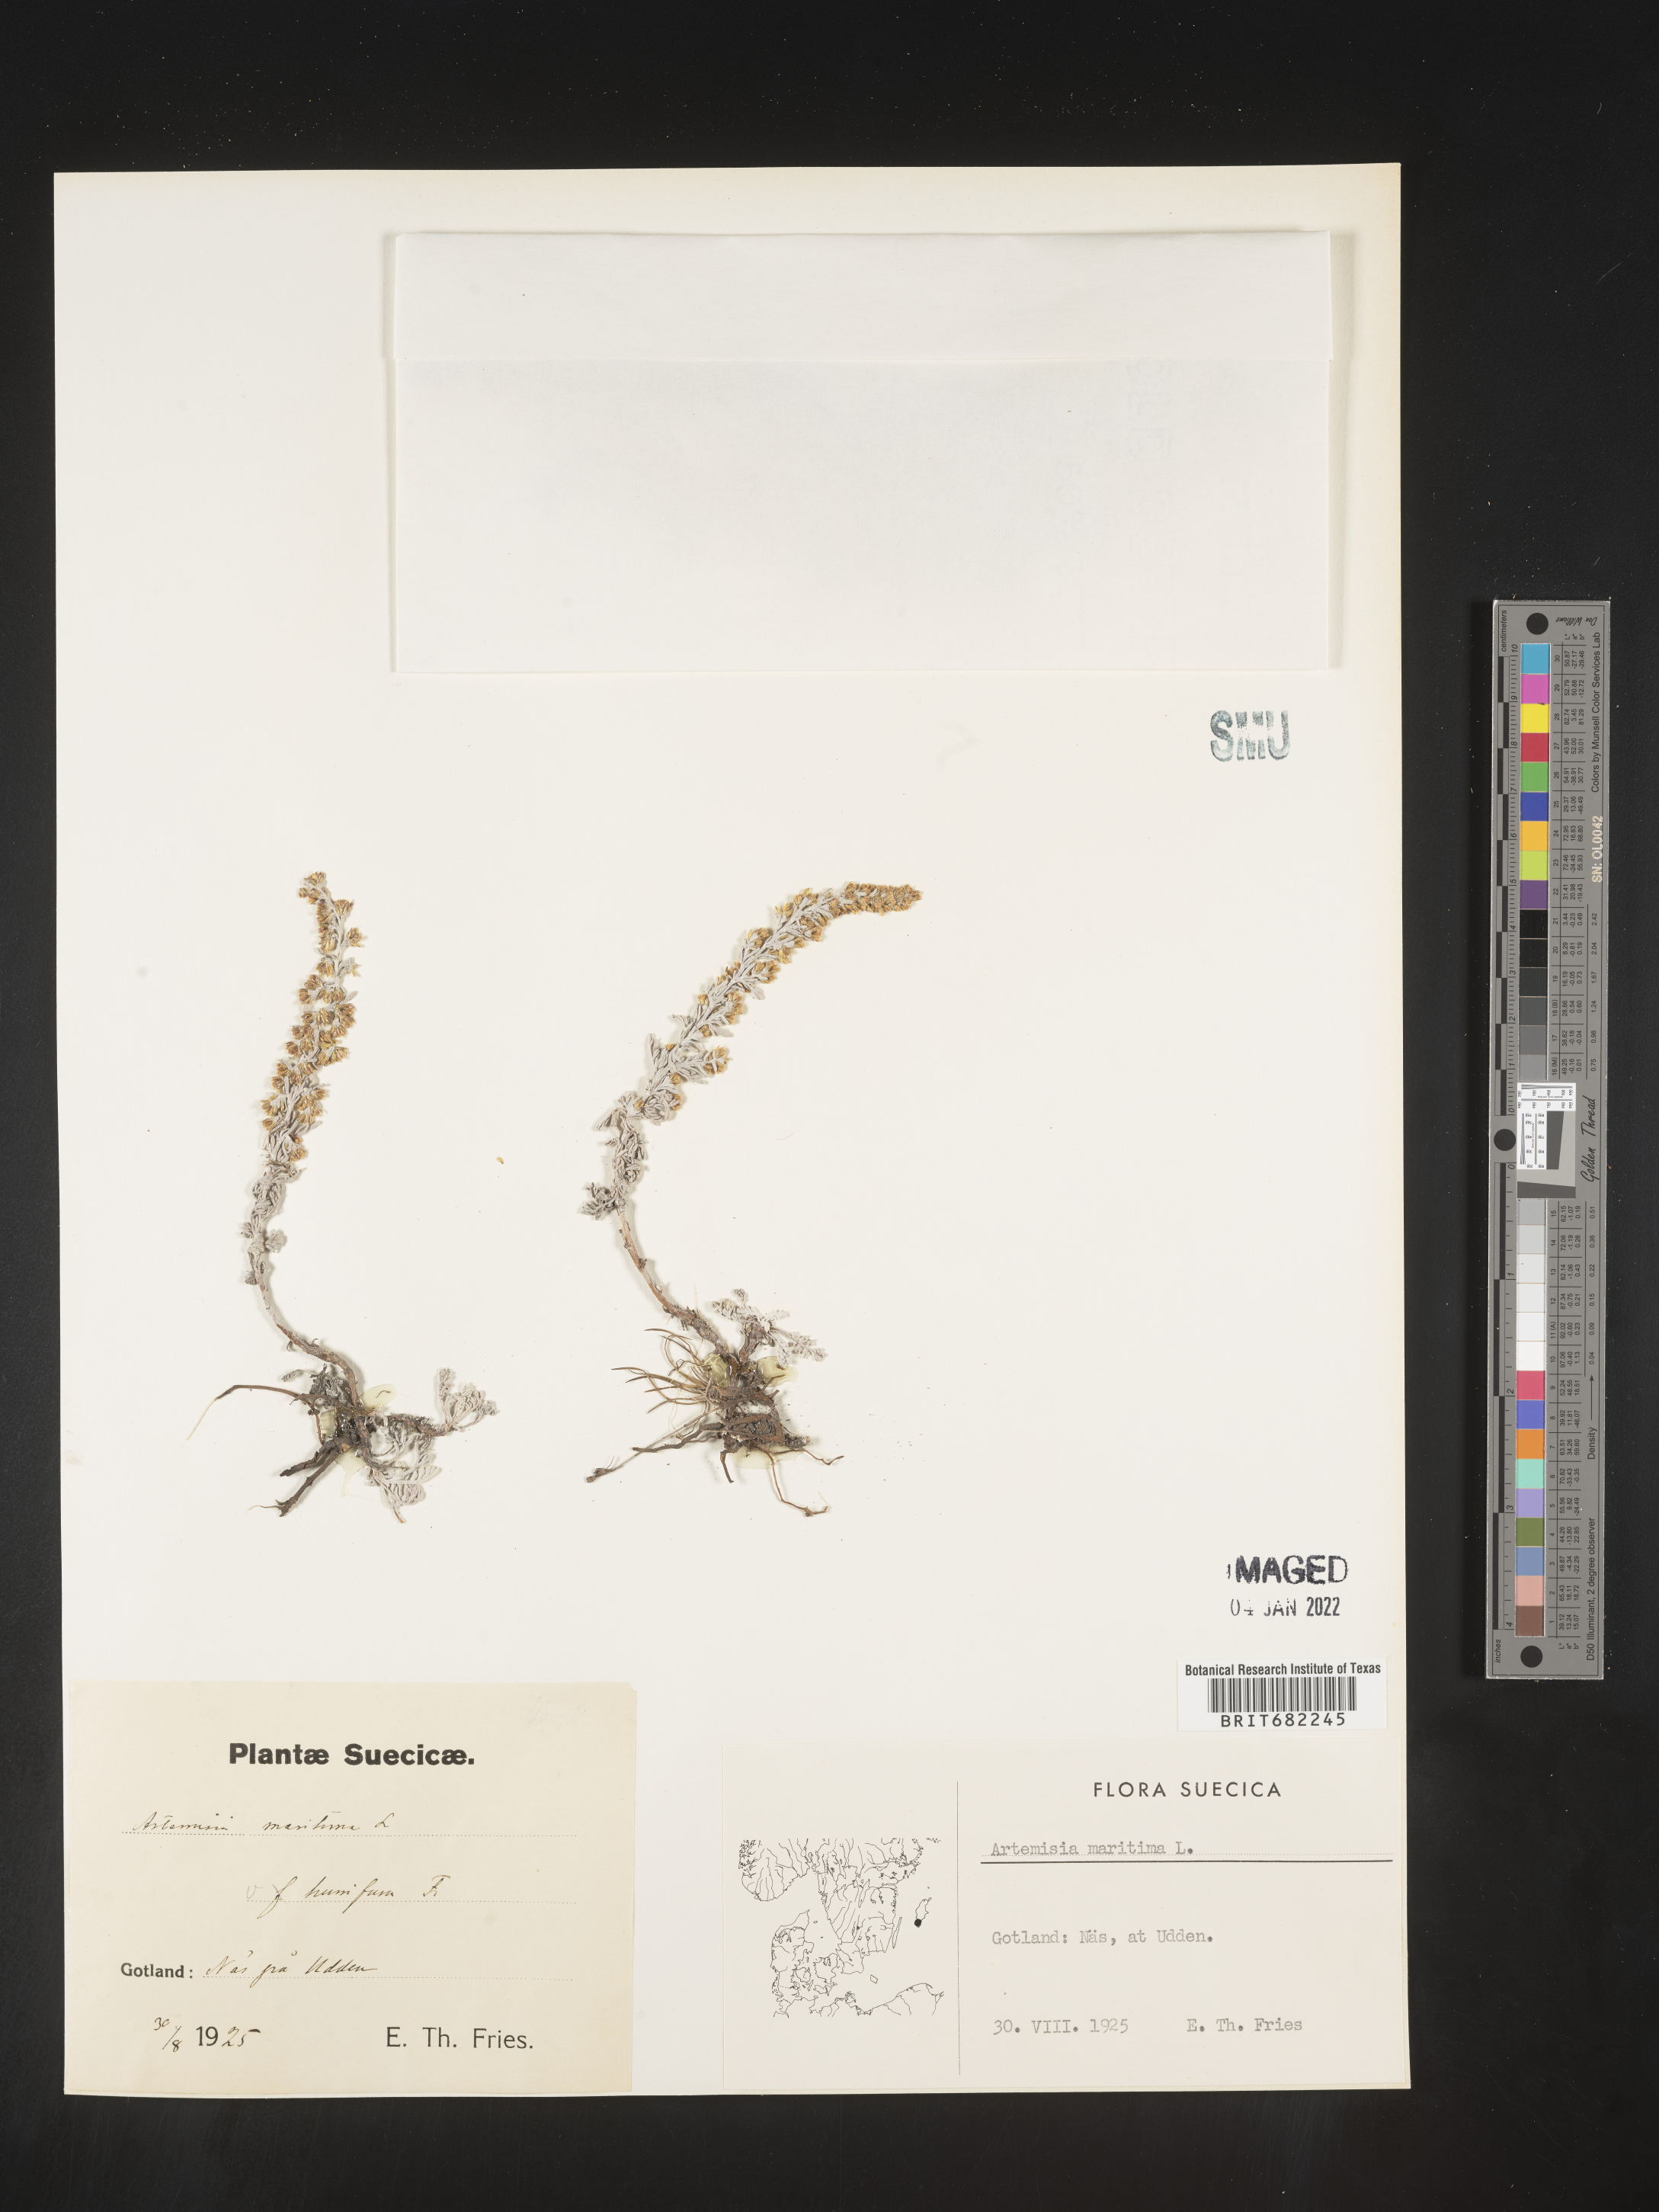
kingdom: Plantae
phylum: Tracheophyta
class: Magnoliopsida
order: Asterales
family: Asteraceae
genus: Artemisia
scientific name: Artemisia
